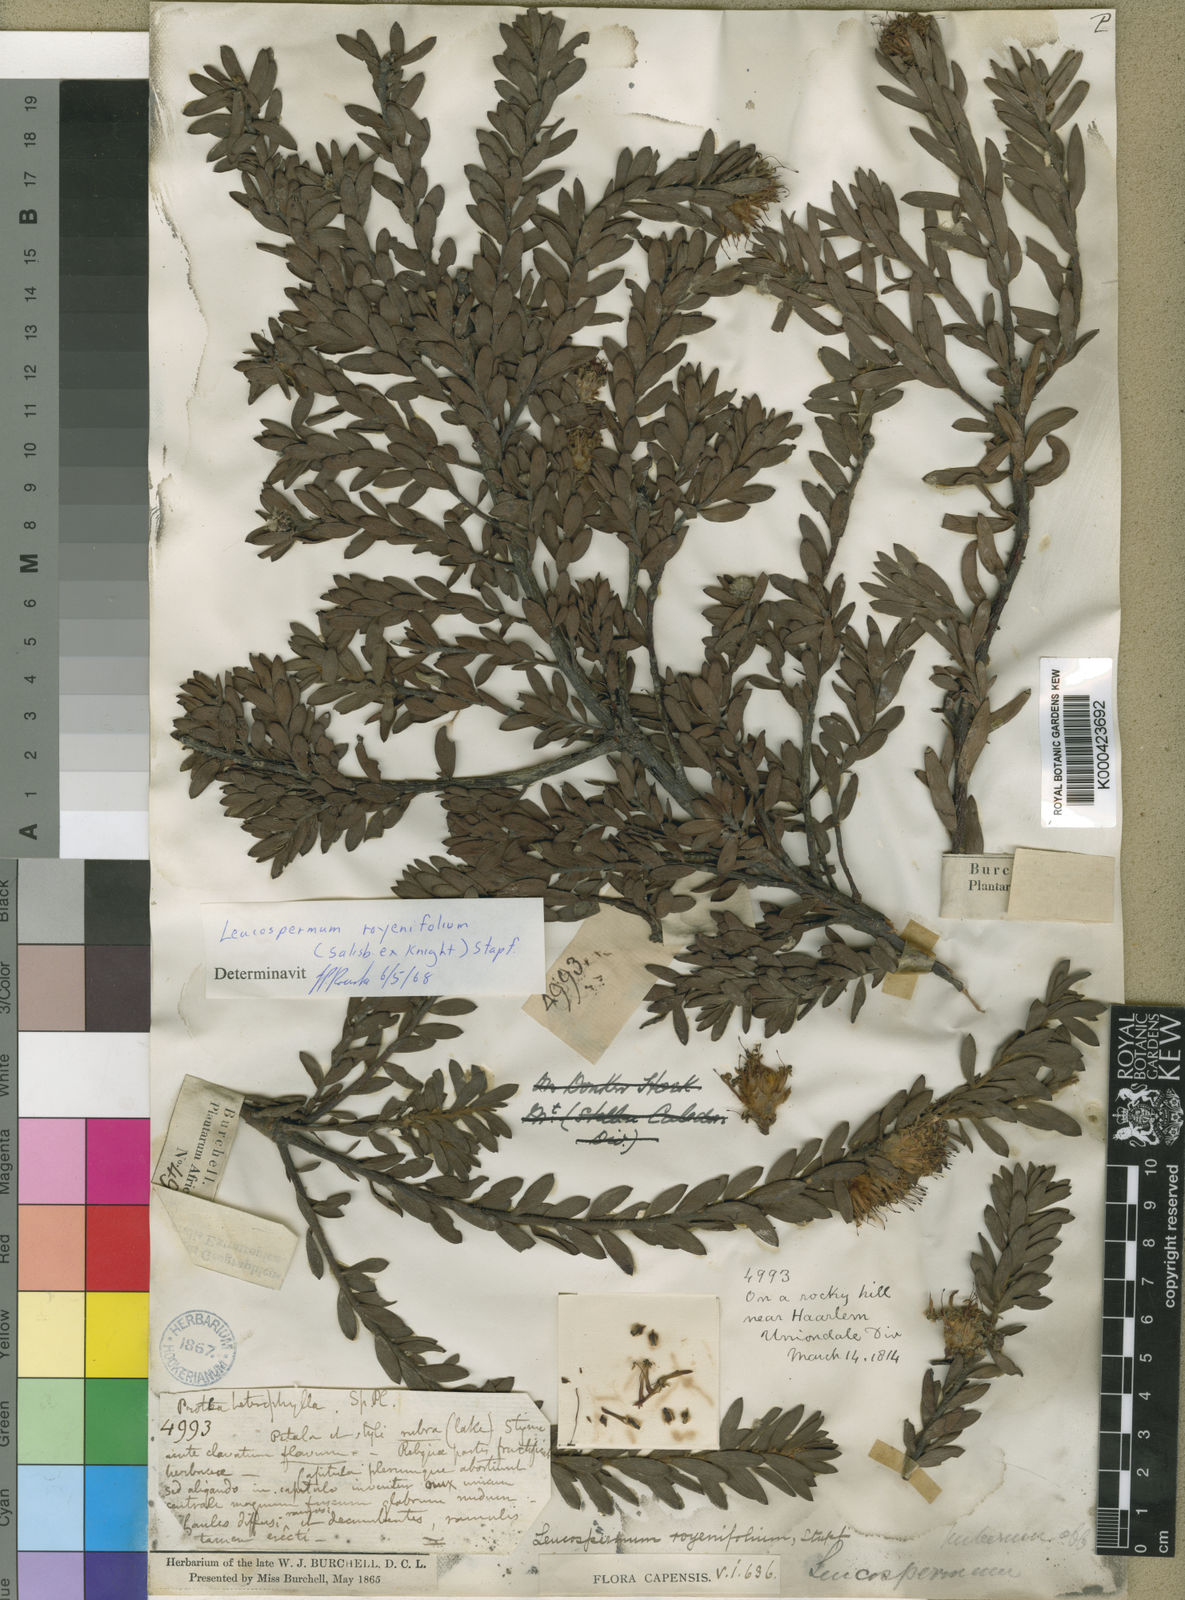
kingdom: Plantae
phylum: Tracheophyta
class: Magnoliopsida
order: Proteales
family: Proteaceae
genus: Leucospermum
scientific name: Leucospermum royenifolium
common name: Eastern pincushion
